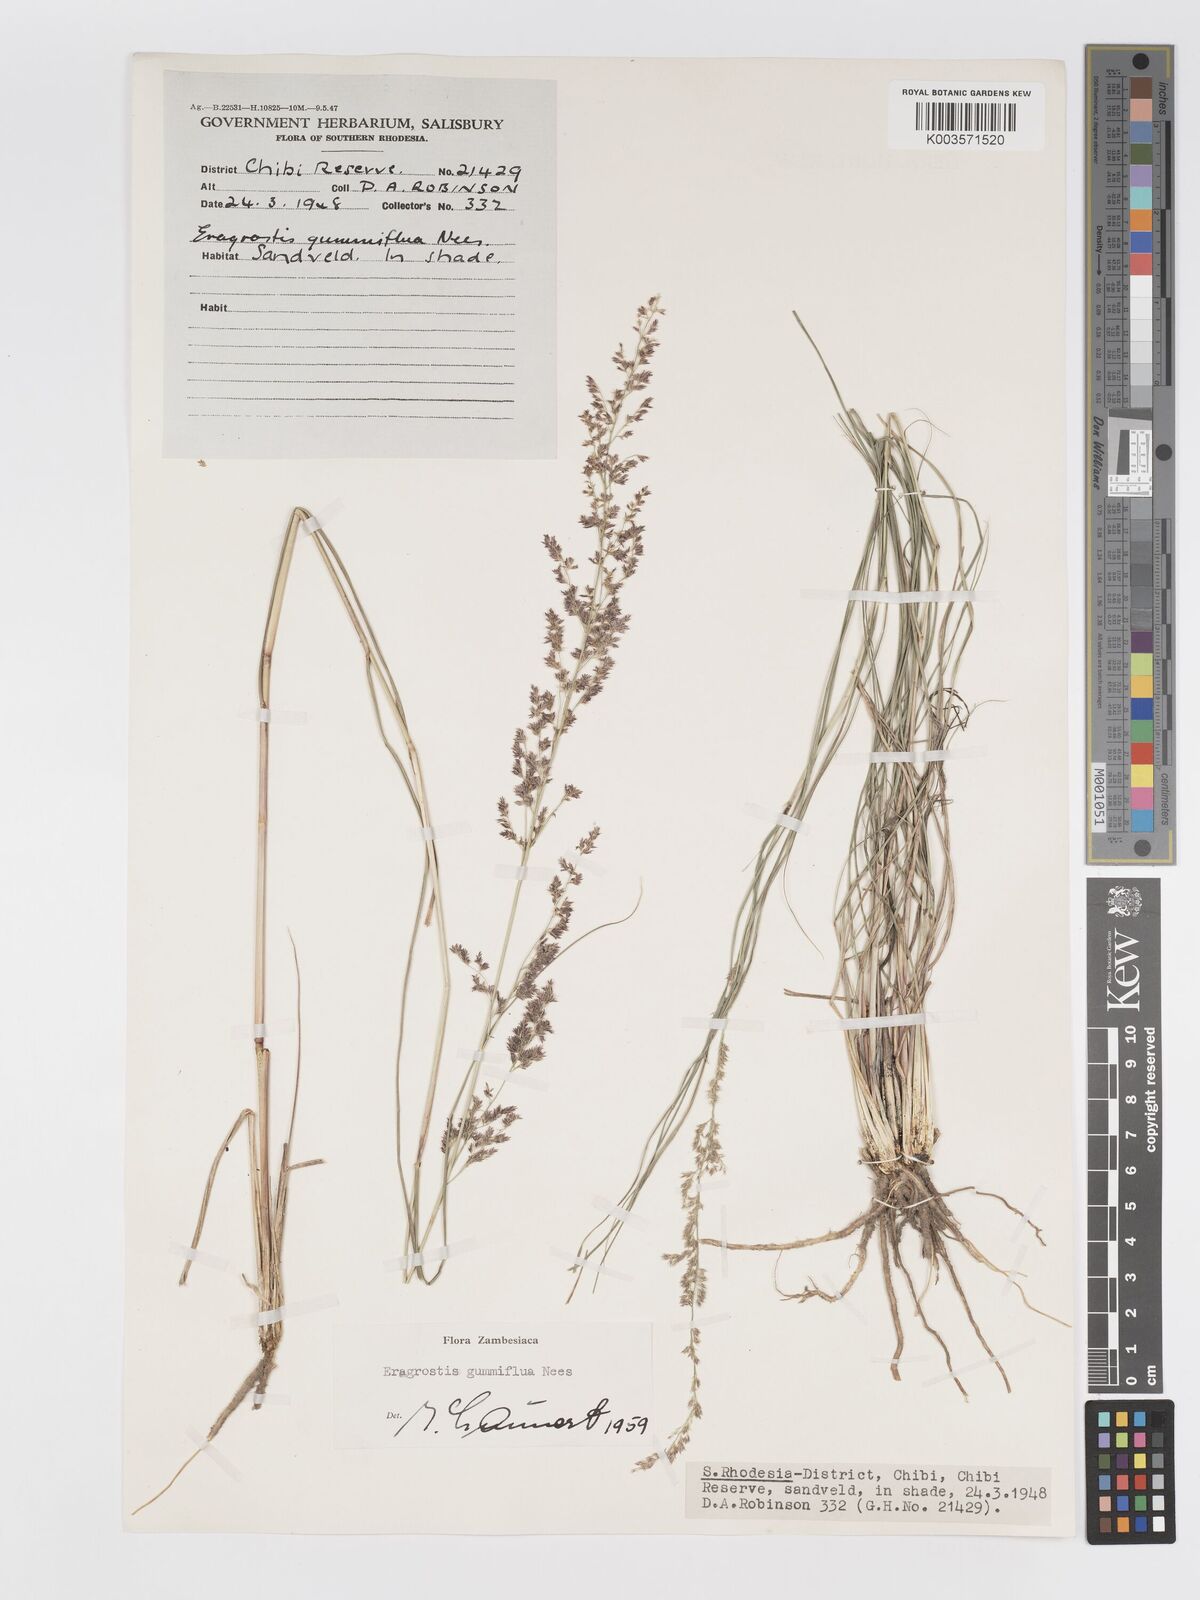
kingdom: Plantae
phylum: Tracheophyta
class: Liliopsida
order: Poales
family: Poaceae
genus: Eragrostis
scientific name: Eragrostis gummiflua
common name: Gum grass
